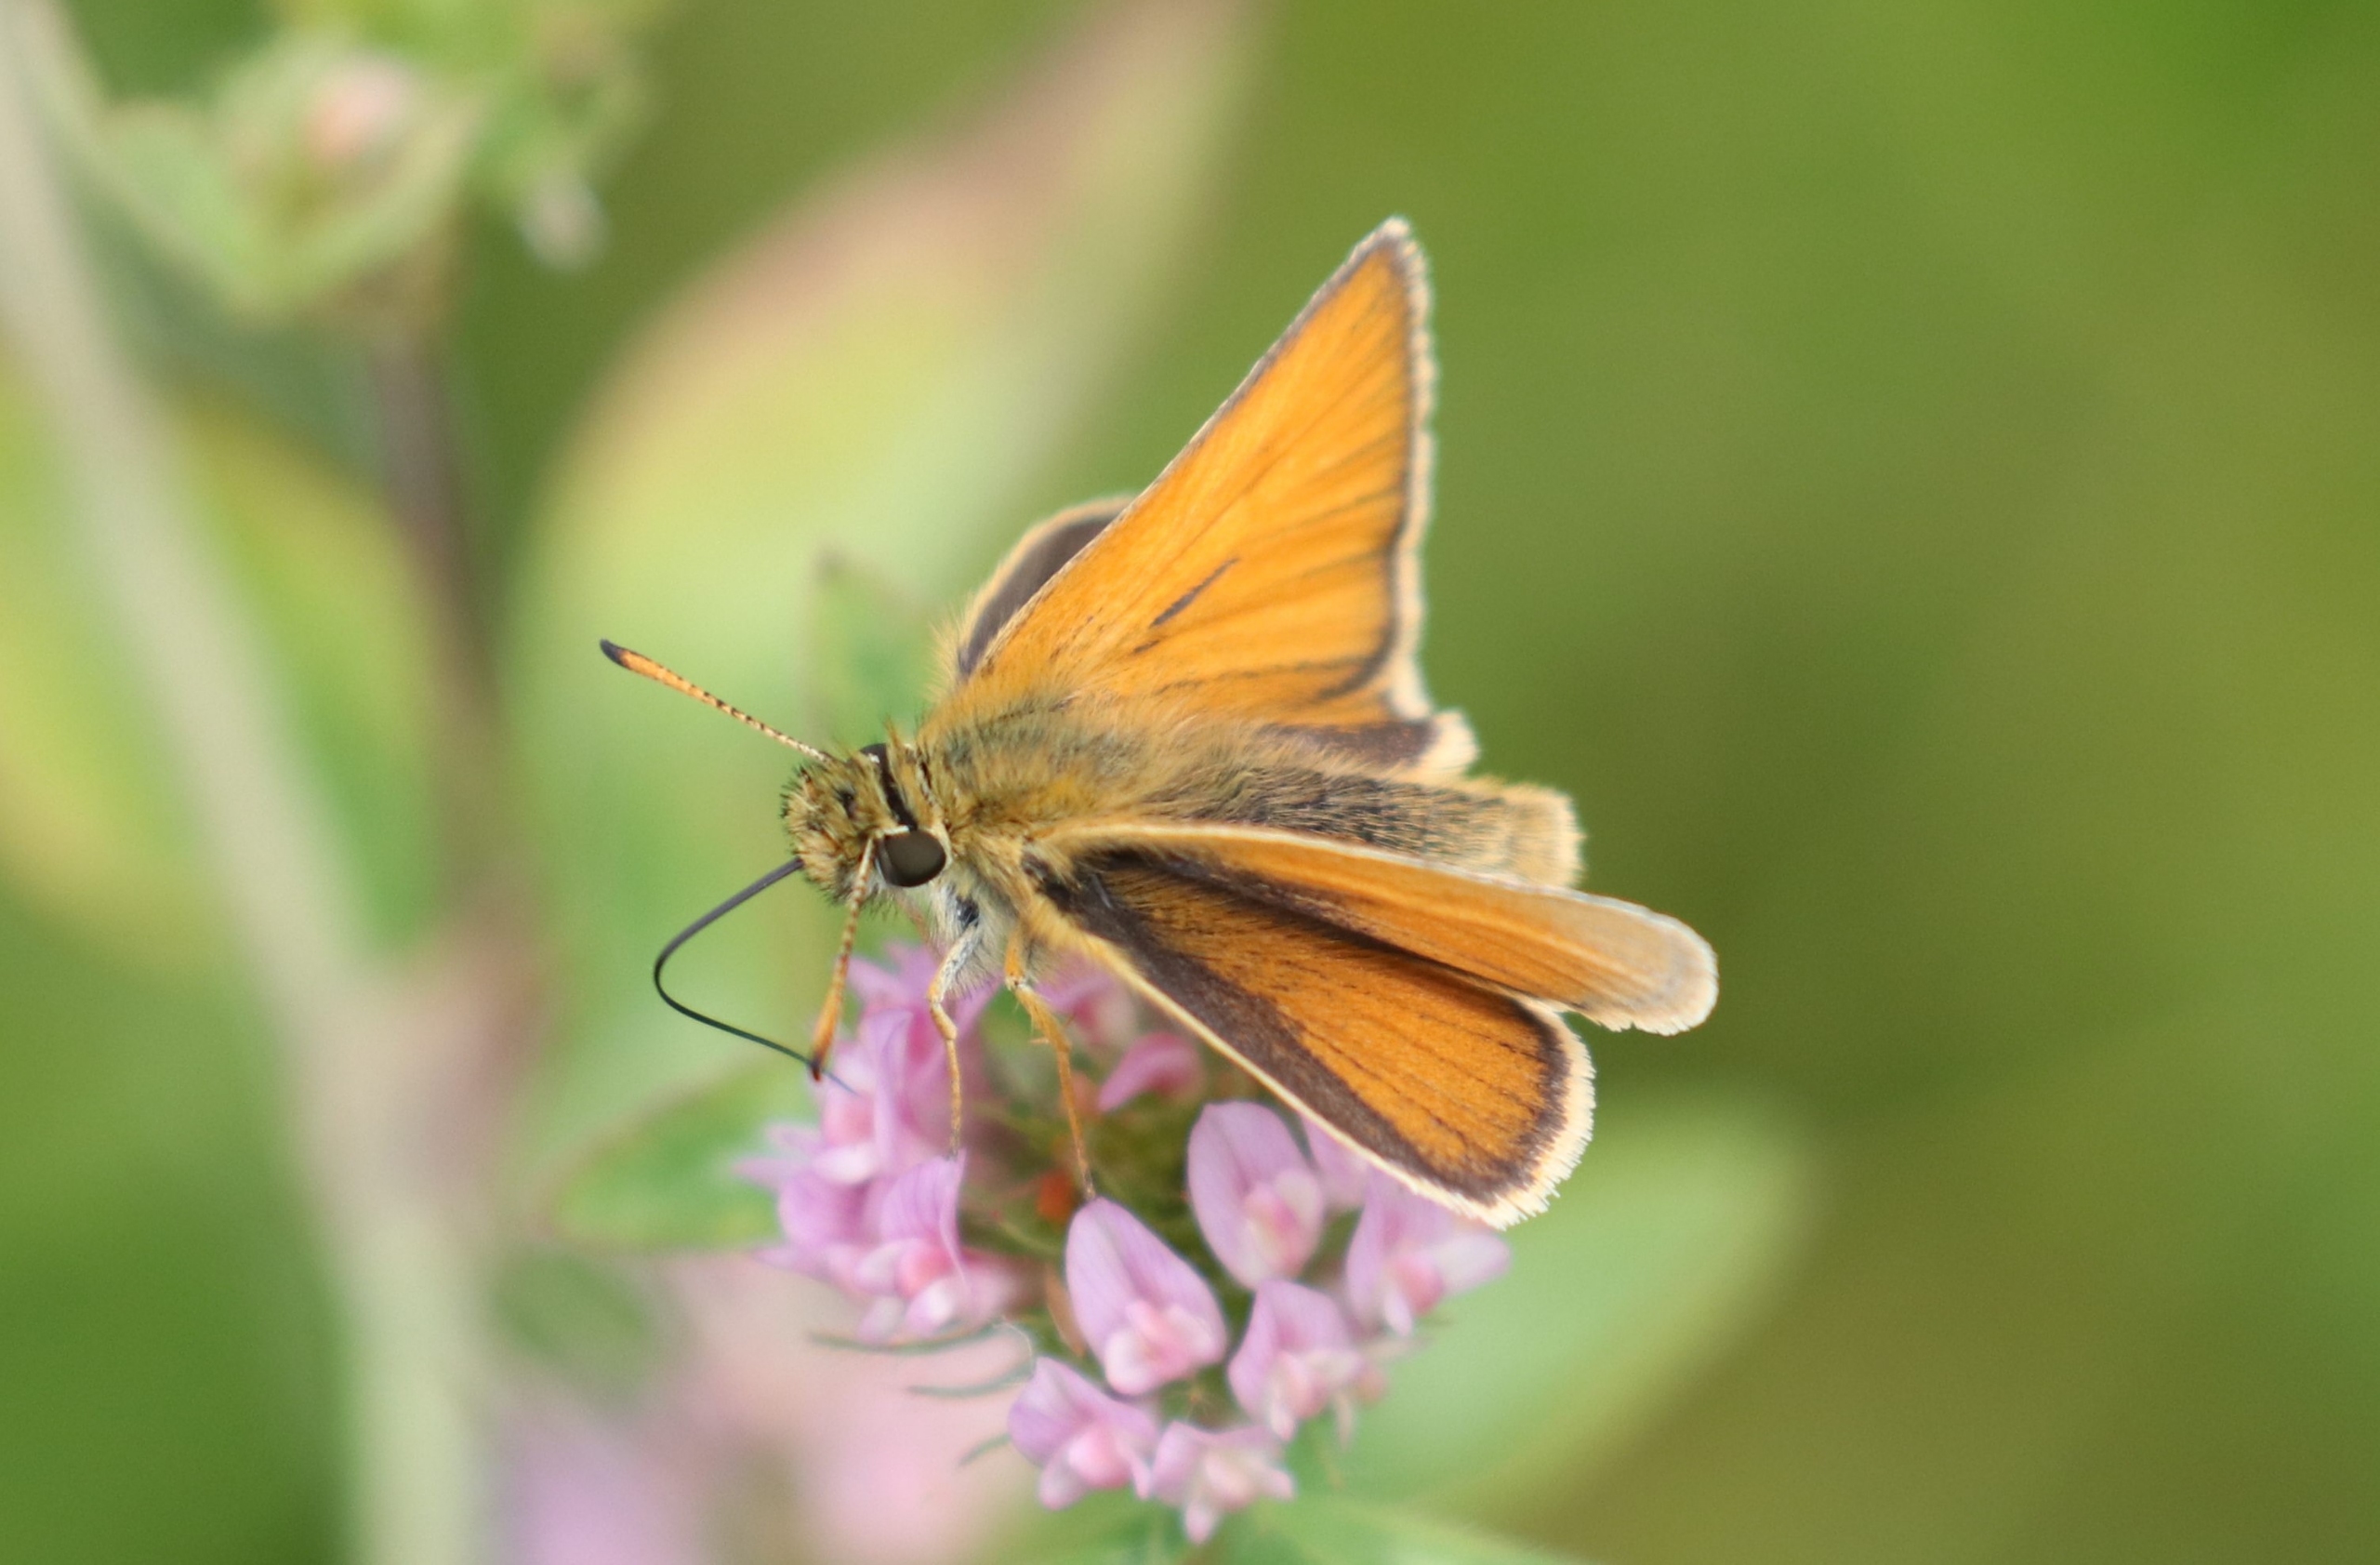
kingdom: Animalia
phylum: Arthropoda
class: Insecta
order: Lepidoptera
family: Hesperiidae
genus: Thymelicus
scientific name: Thymelicus lineola
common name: Stregbredpande
